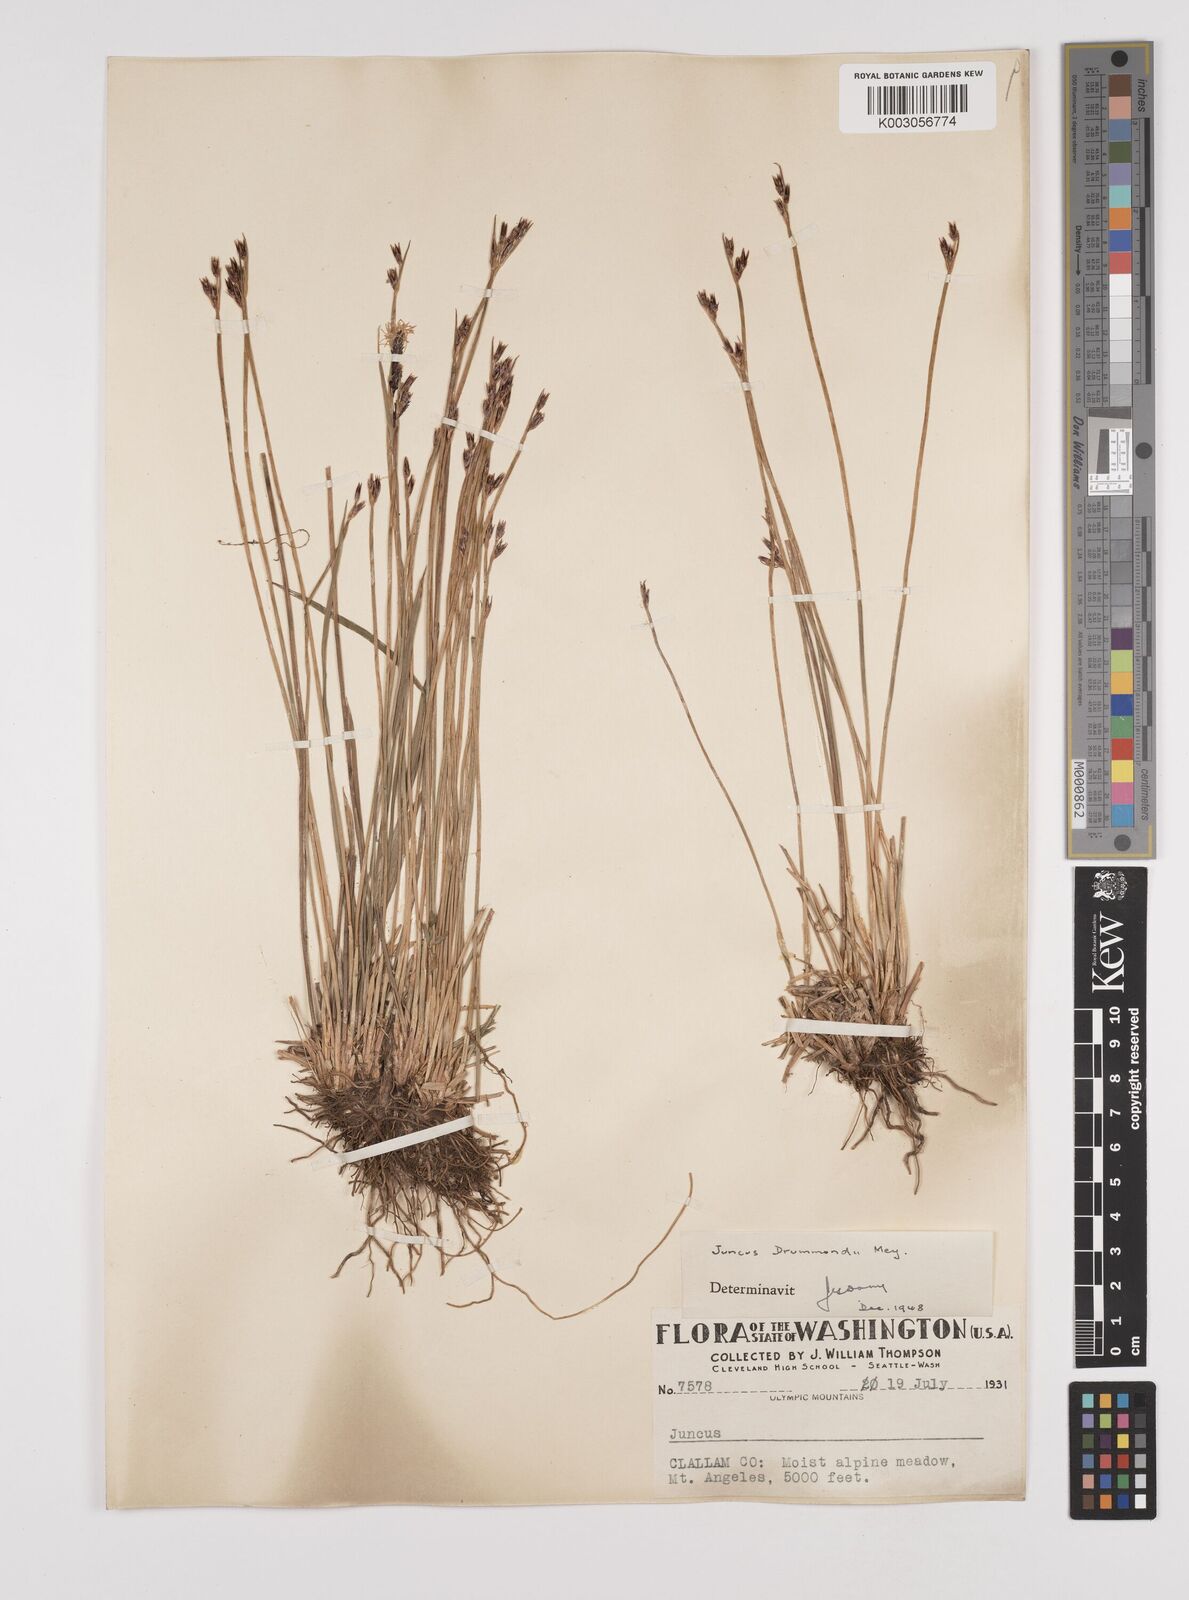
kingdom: Plantae
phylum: Tracheophyta
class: Liliopsida
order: Poales
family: Juncaceae
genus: Juncus
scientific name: Juncus drummondii
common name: Drummond's rush
